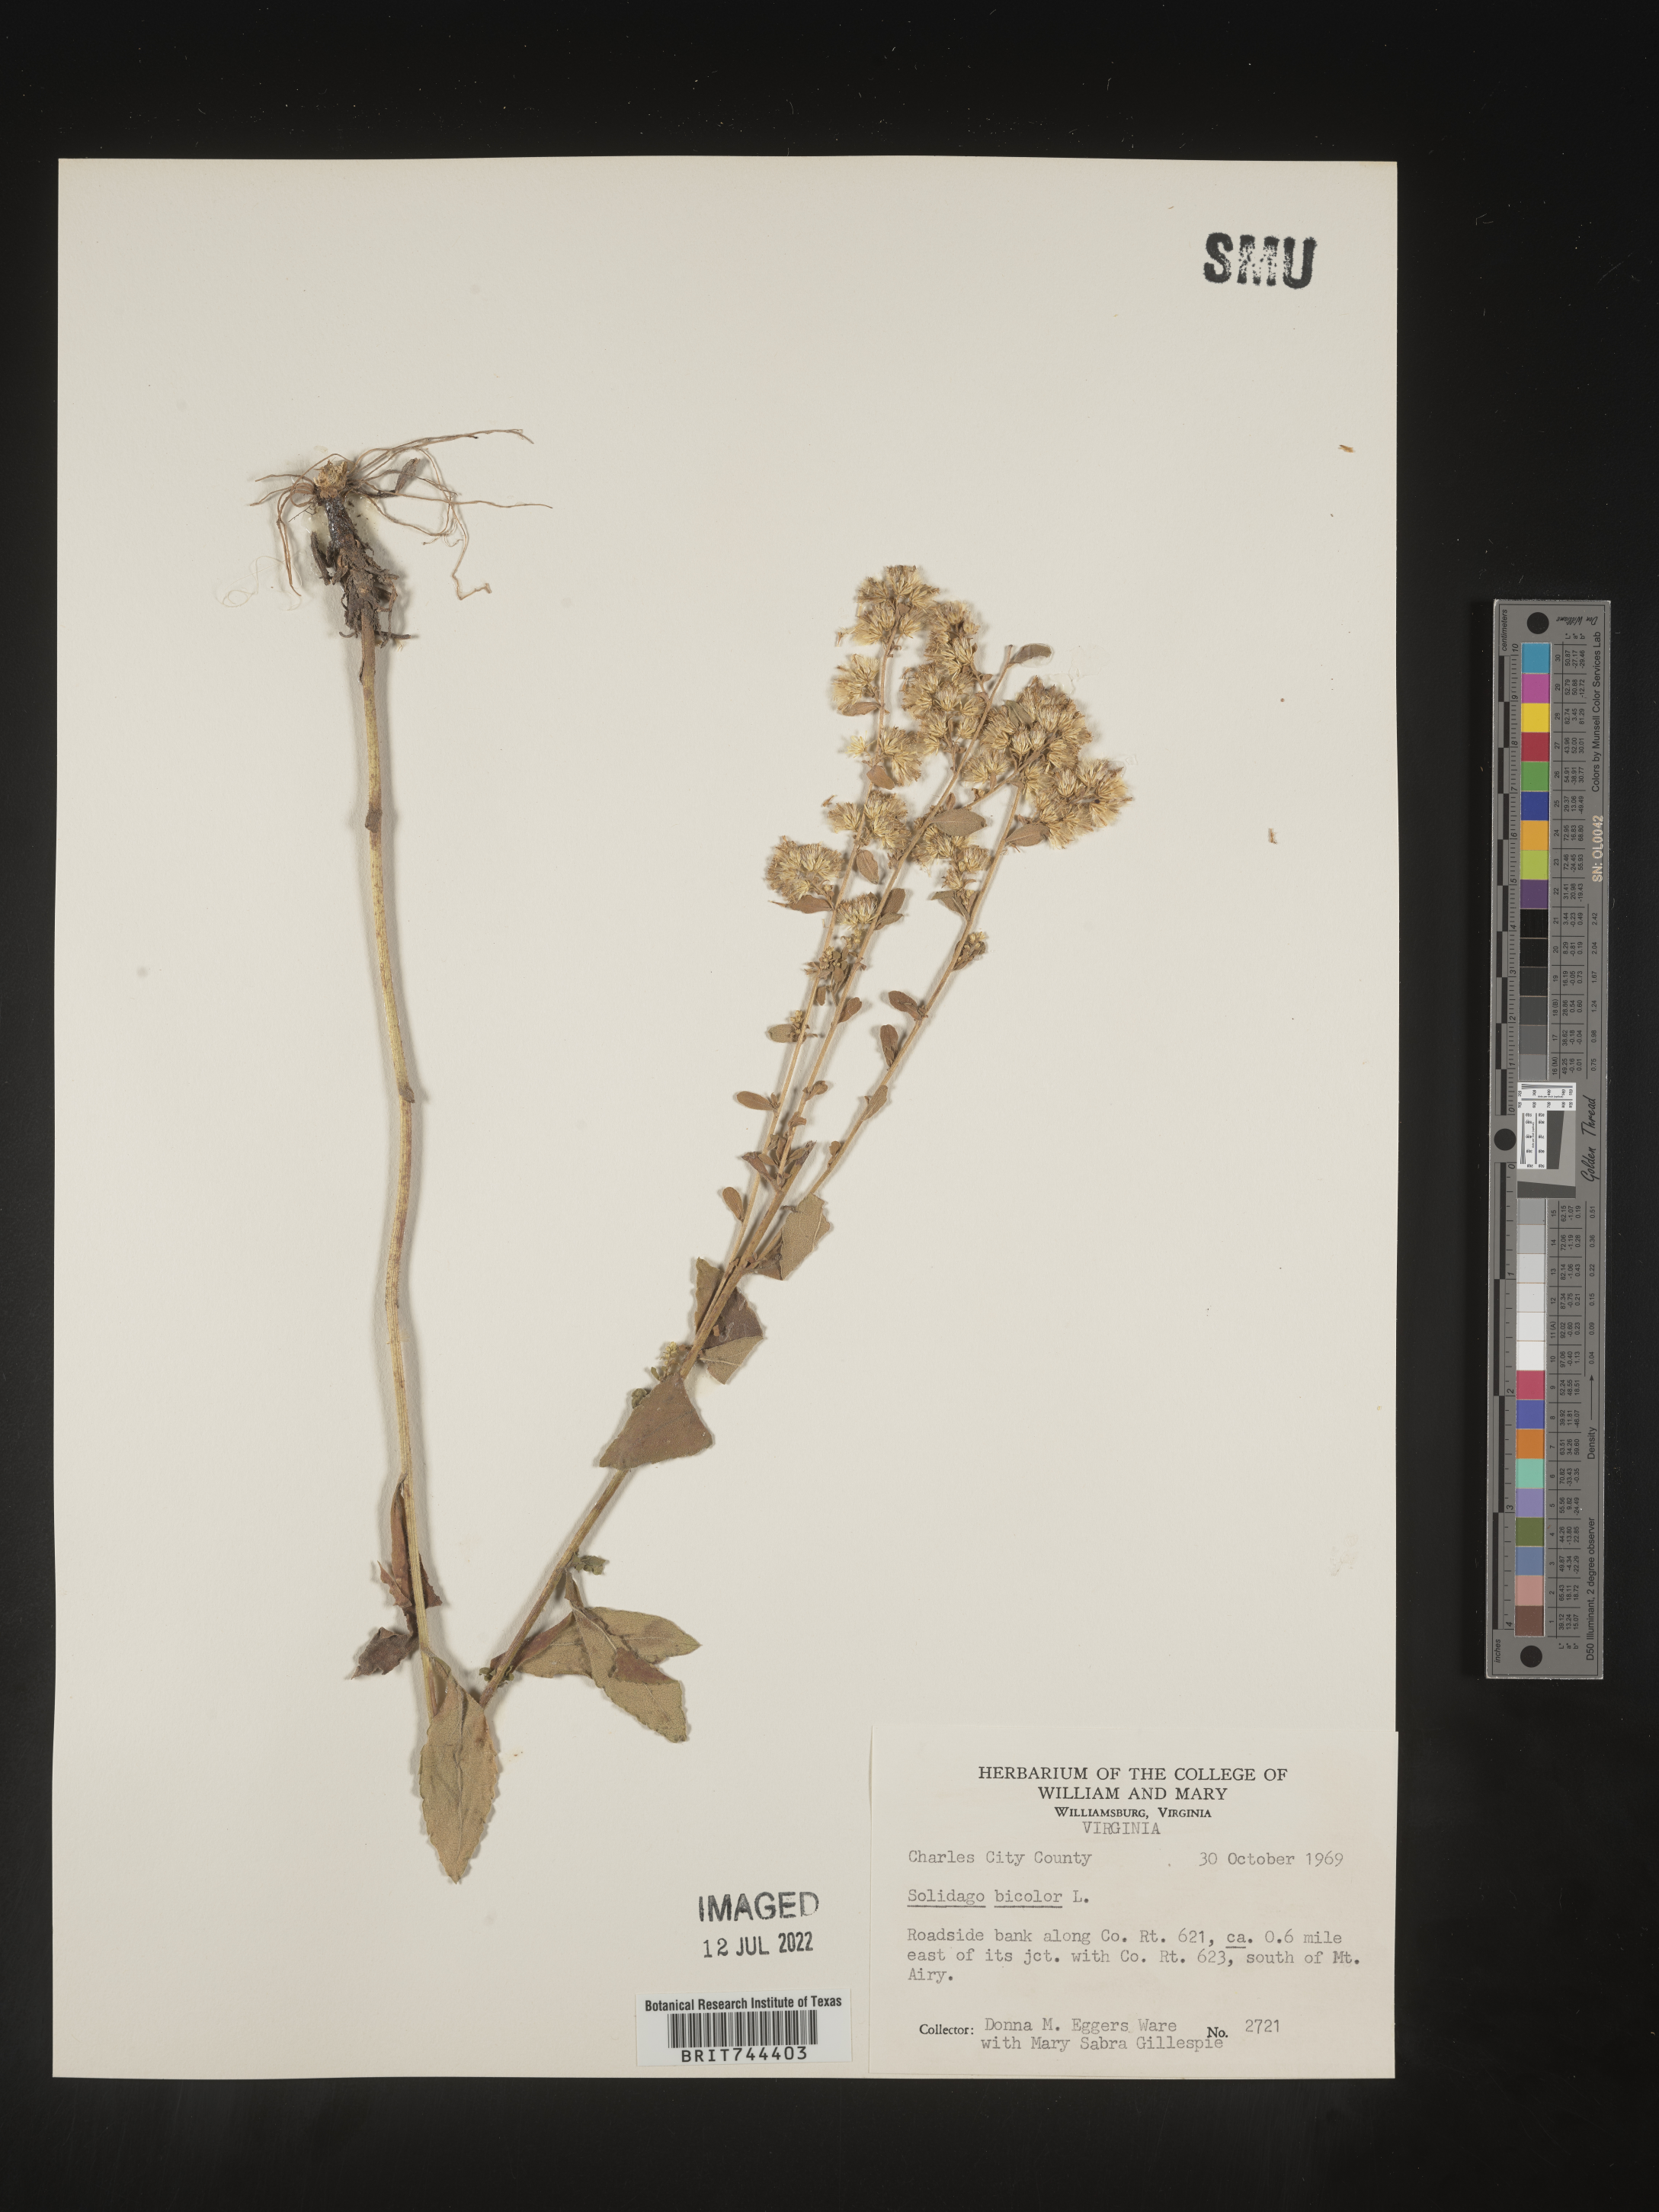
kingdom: Plantae
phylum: Tracheophyta
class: Magnoliopsida
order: Asterales
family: Asteraceae
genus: Solidago
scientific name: Solidago bicolor
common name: Silverrod
